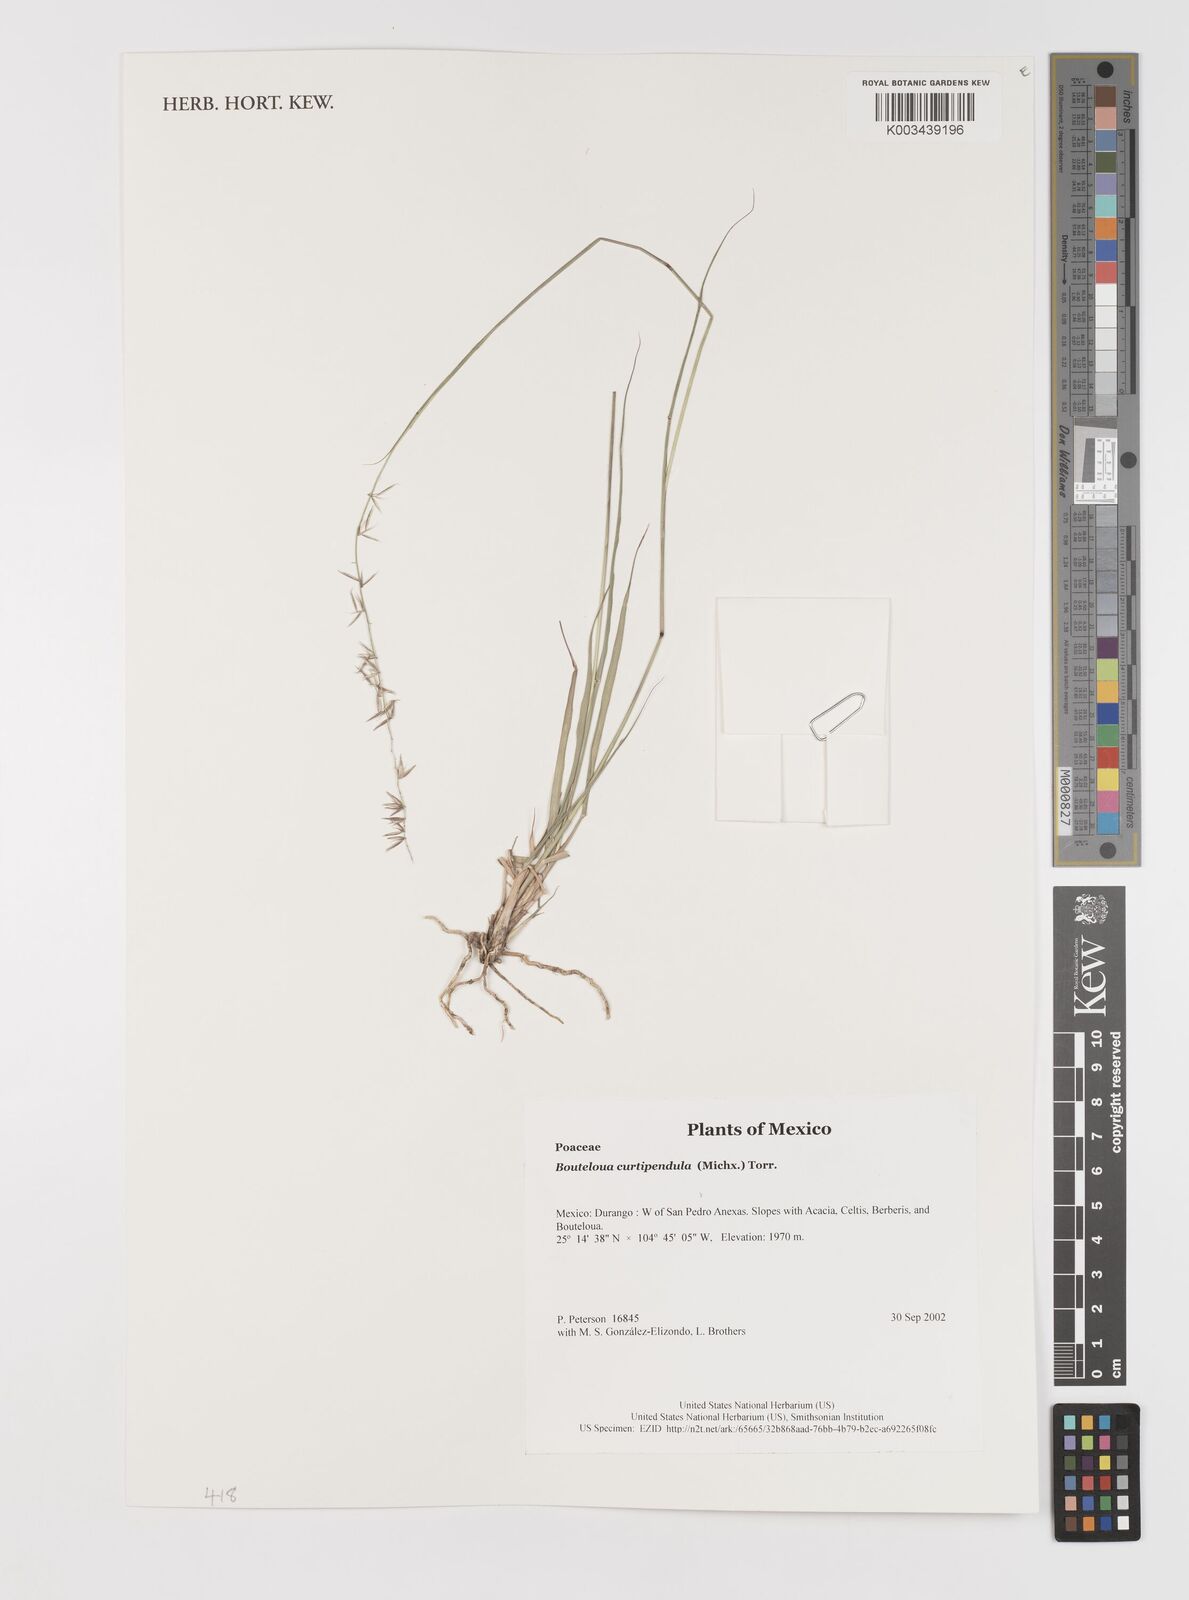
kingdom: Plantae
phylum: Tracheophyta
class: Liliopsida
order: Poales
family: Poaceae
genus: Bouteloua
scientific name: Bouteloua curtipendula
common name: Side-oats grama
